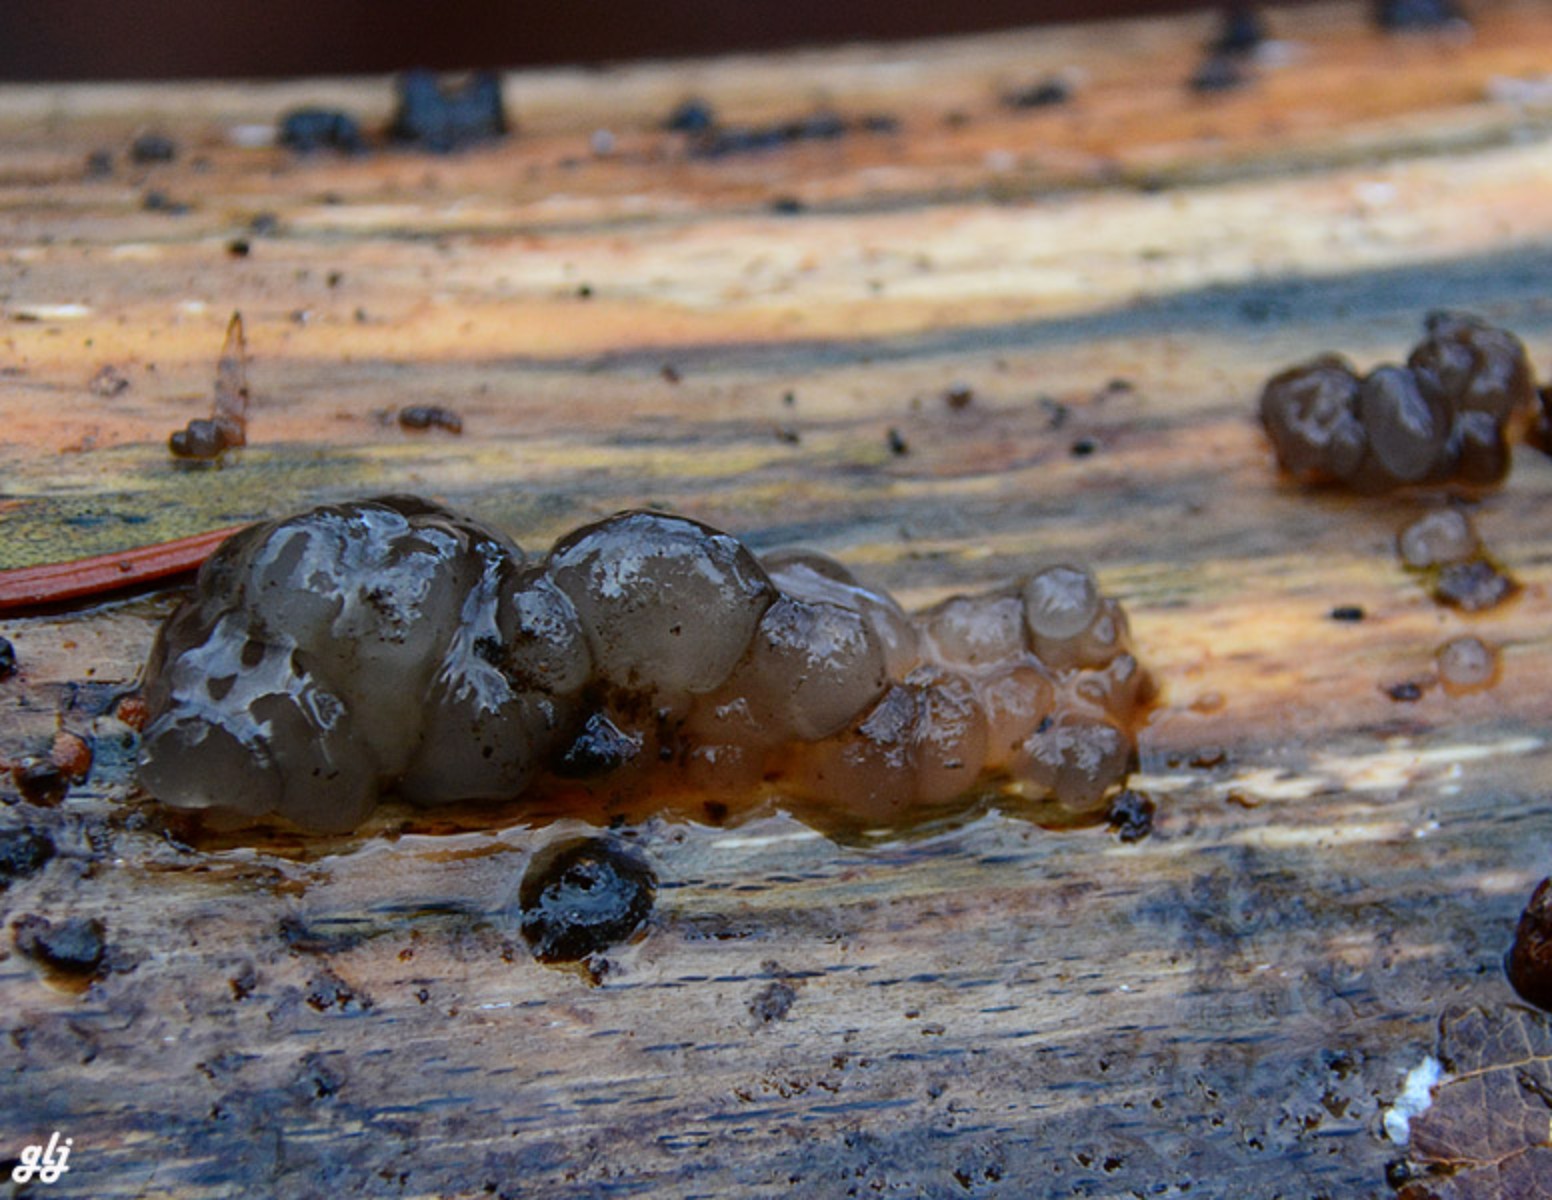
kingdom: Fungi
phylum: Basidiomycota
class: Tremellomycetes
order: Tremellales
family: Exidiaceae
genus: Exidia
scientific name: Exidia
